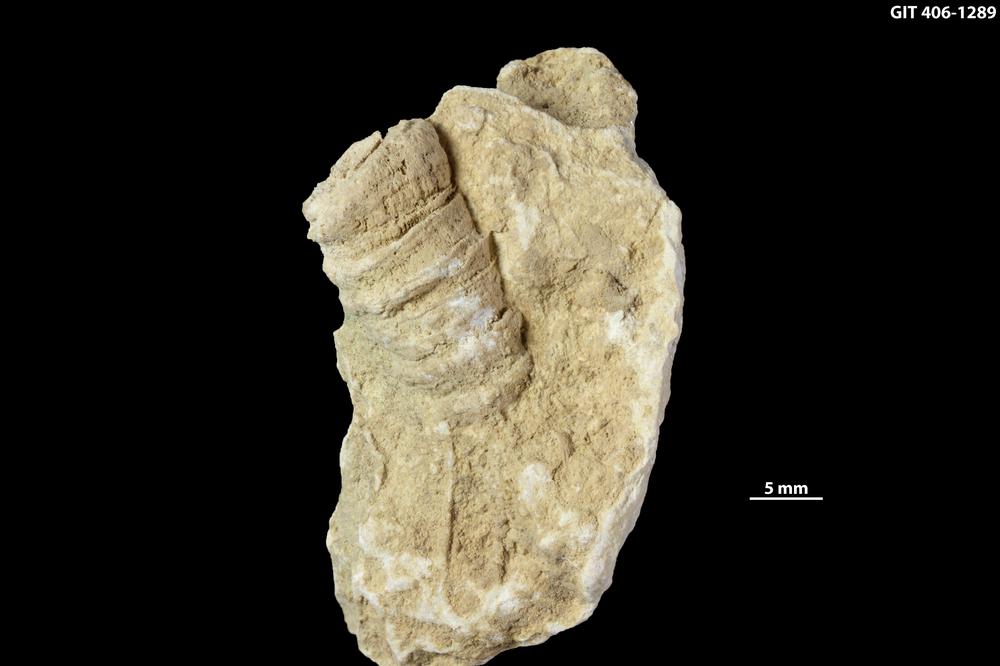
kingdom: Animalia
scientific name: Animalia
